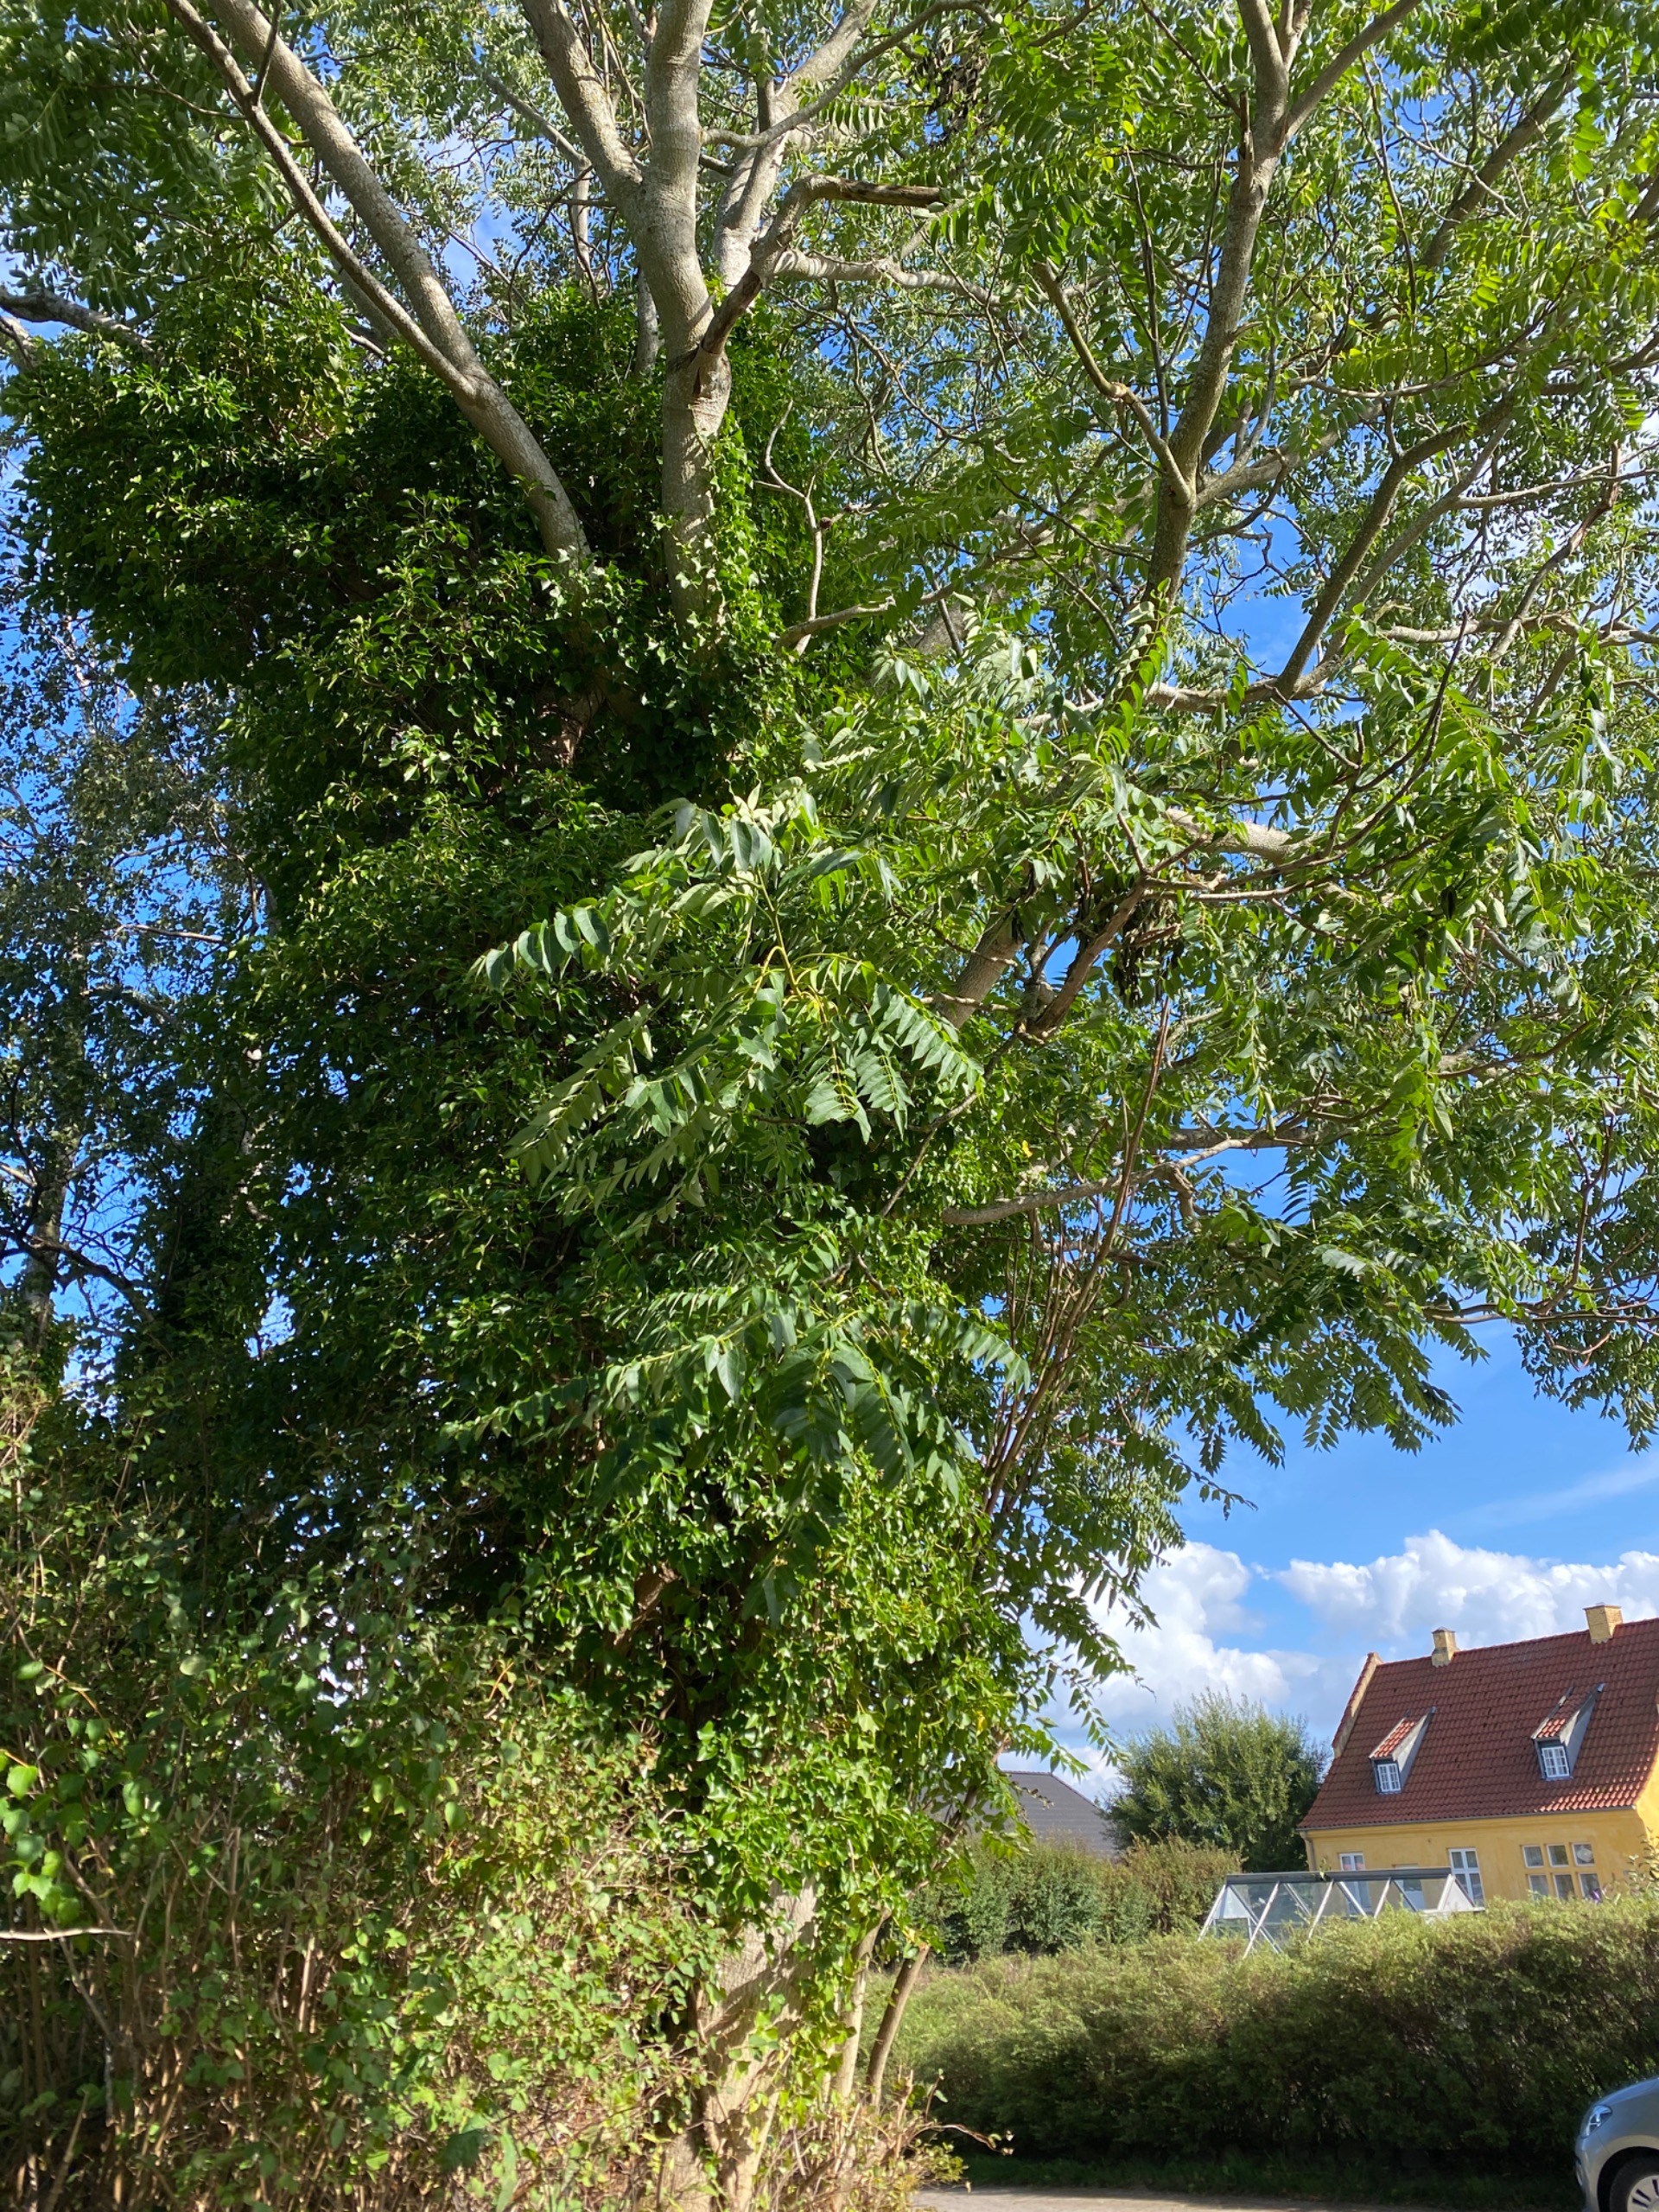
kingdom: Plantae
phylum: Tracheophyta
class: Magnoliopsida
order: Sapindales
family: Simaroubaceae
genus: Ailanthus
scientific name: Ailanthus altissima
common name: Skyrækker
